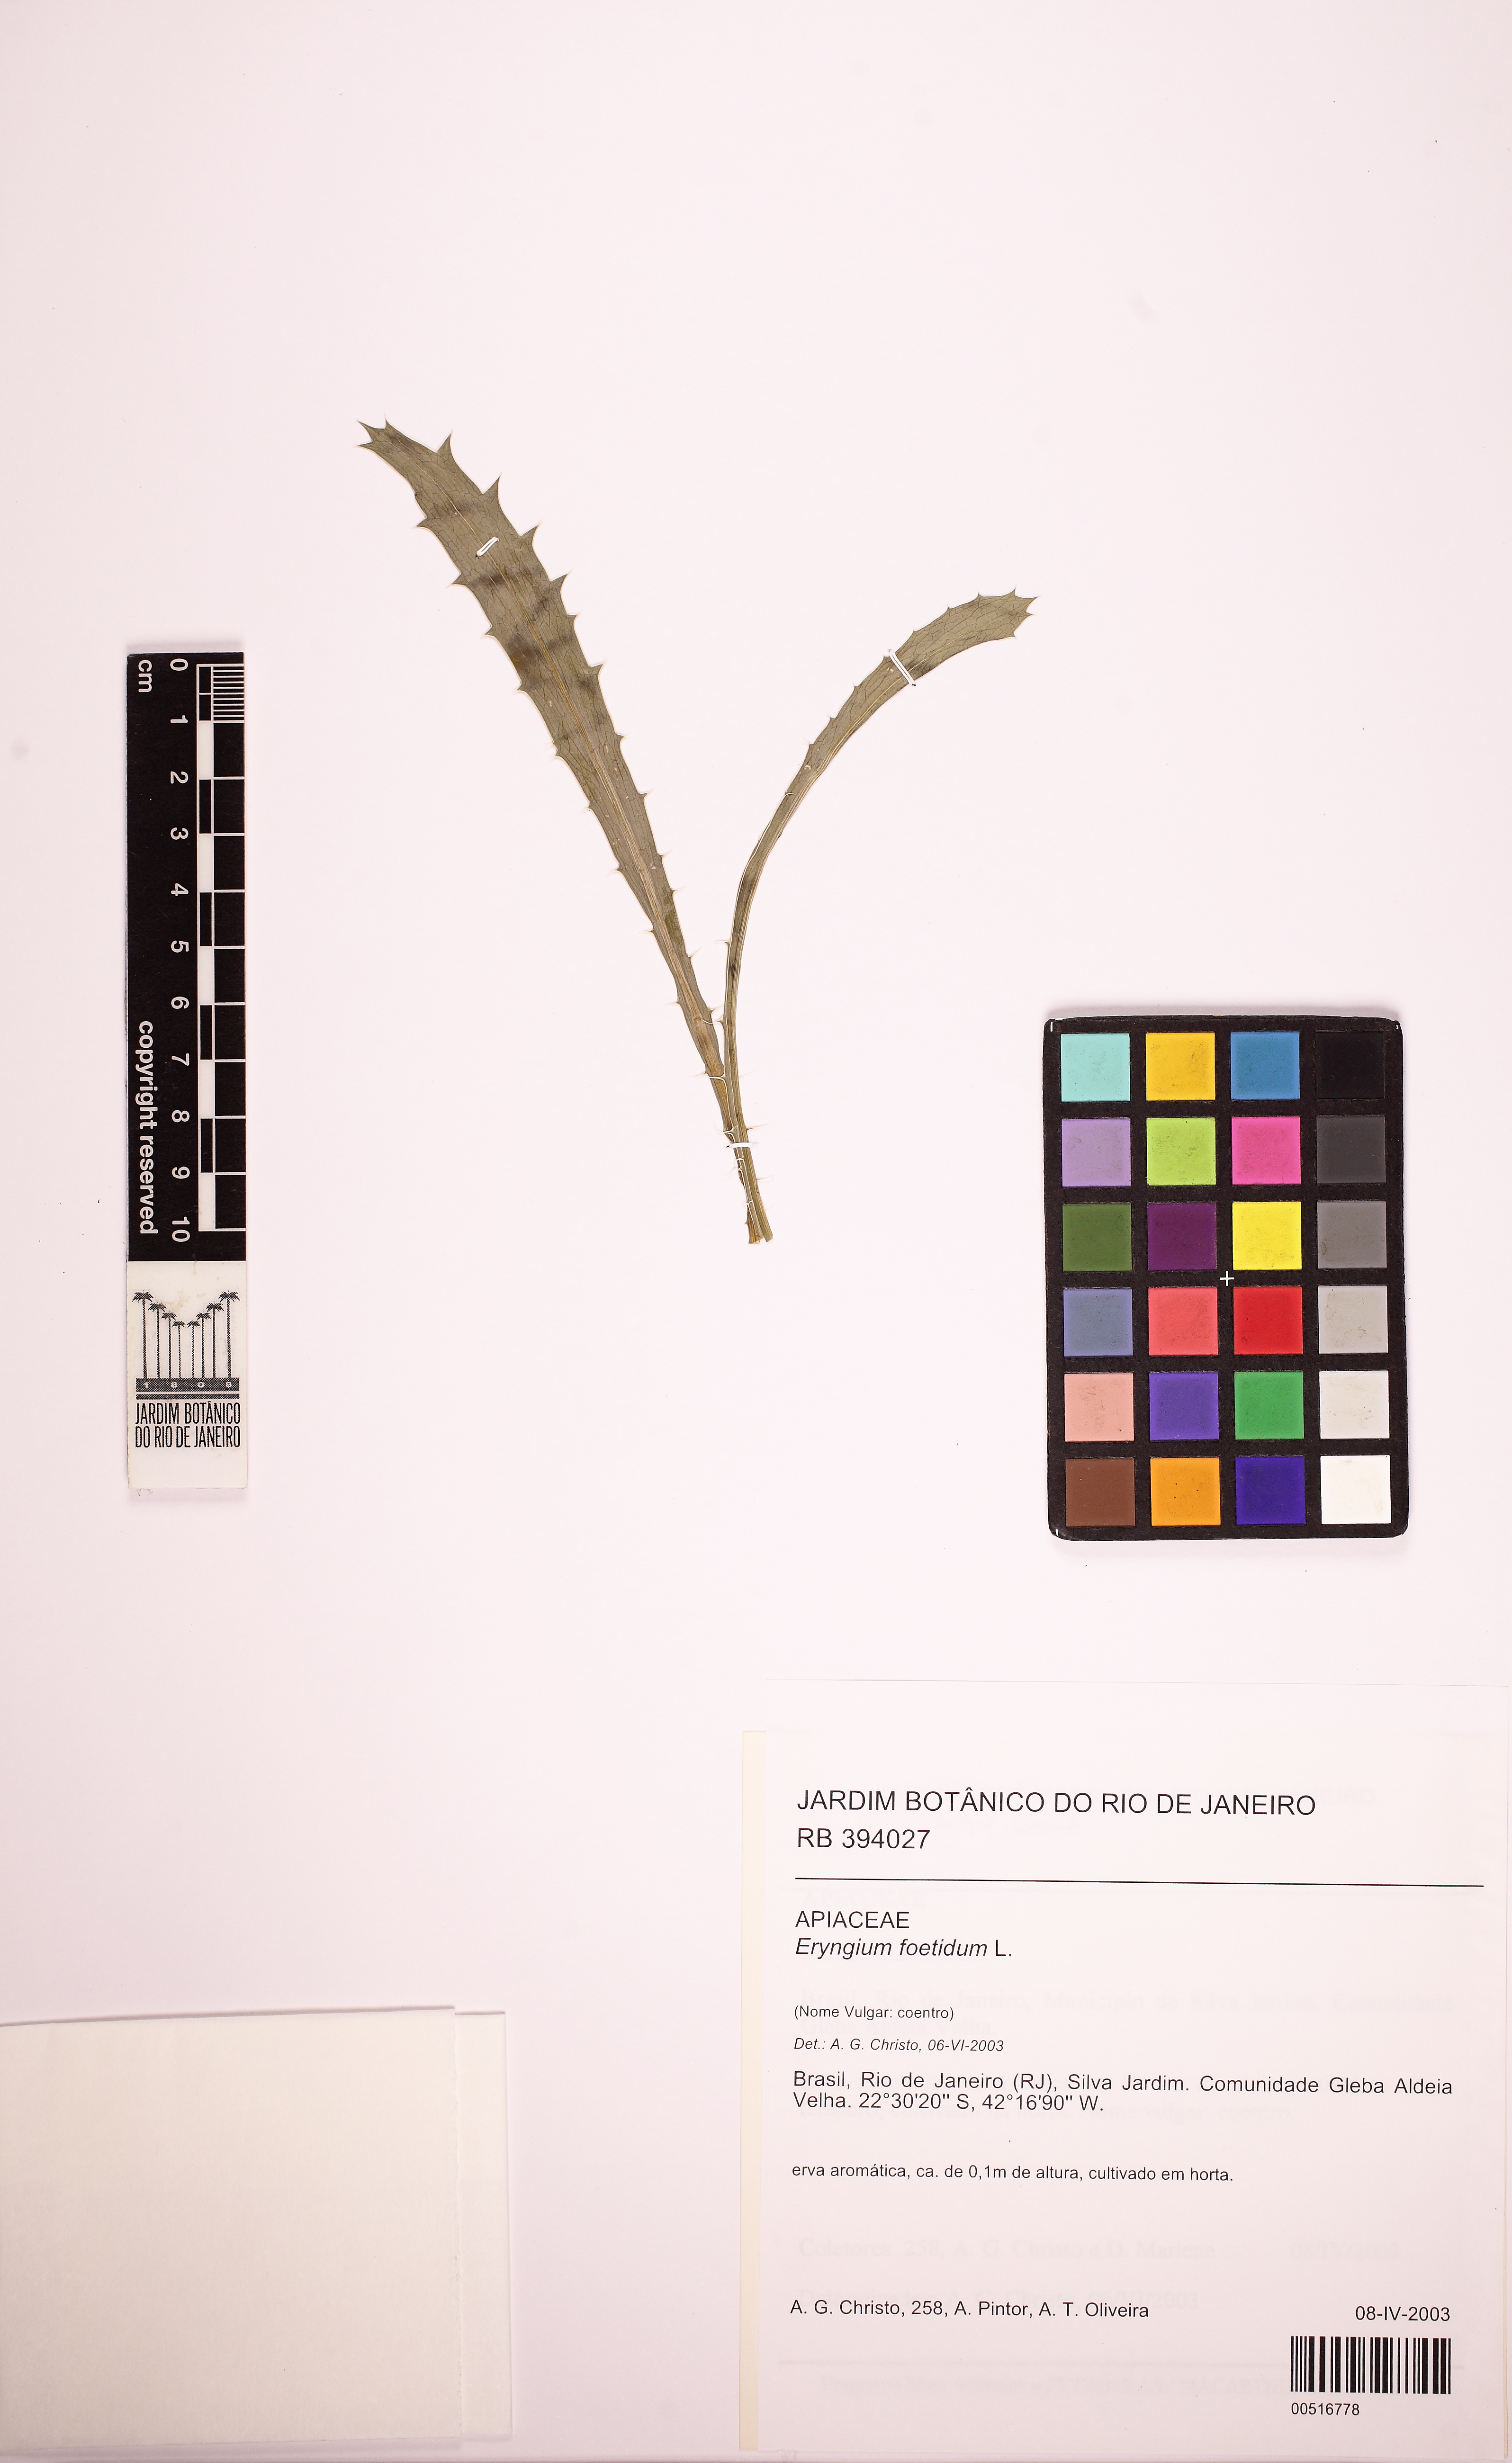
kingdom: Plantae
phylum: Tracheophyta
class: Magnoliopsida
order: Apiales
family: Apiaceae
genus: Eryngium
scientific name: Eryngium coronatum
